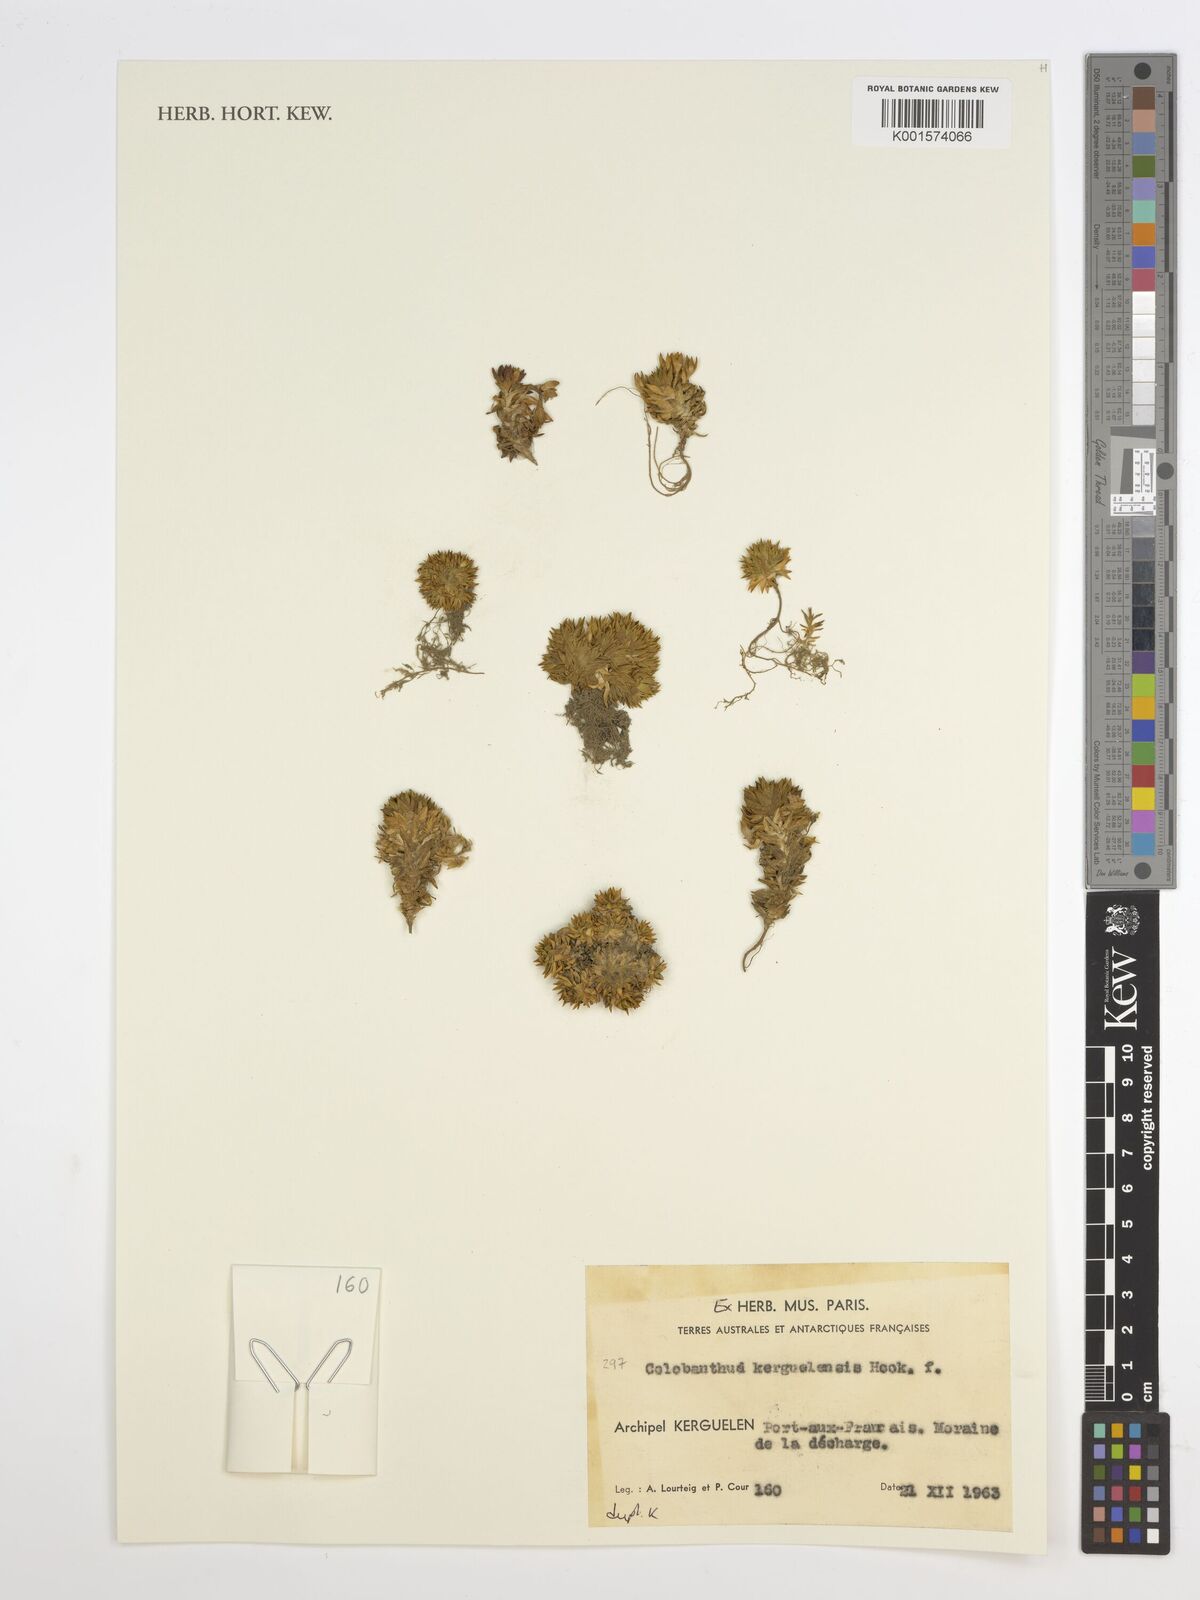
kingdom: Plantae
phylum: Tracheophyta
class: Magnoliopsida
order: Caryophyllales
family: Caryophyllaceae
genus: Colobanthus
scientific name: Colobanthus kerguelensis
